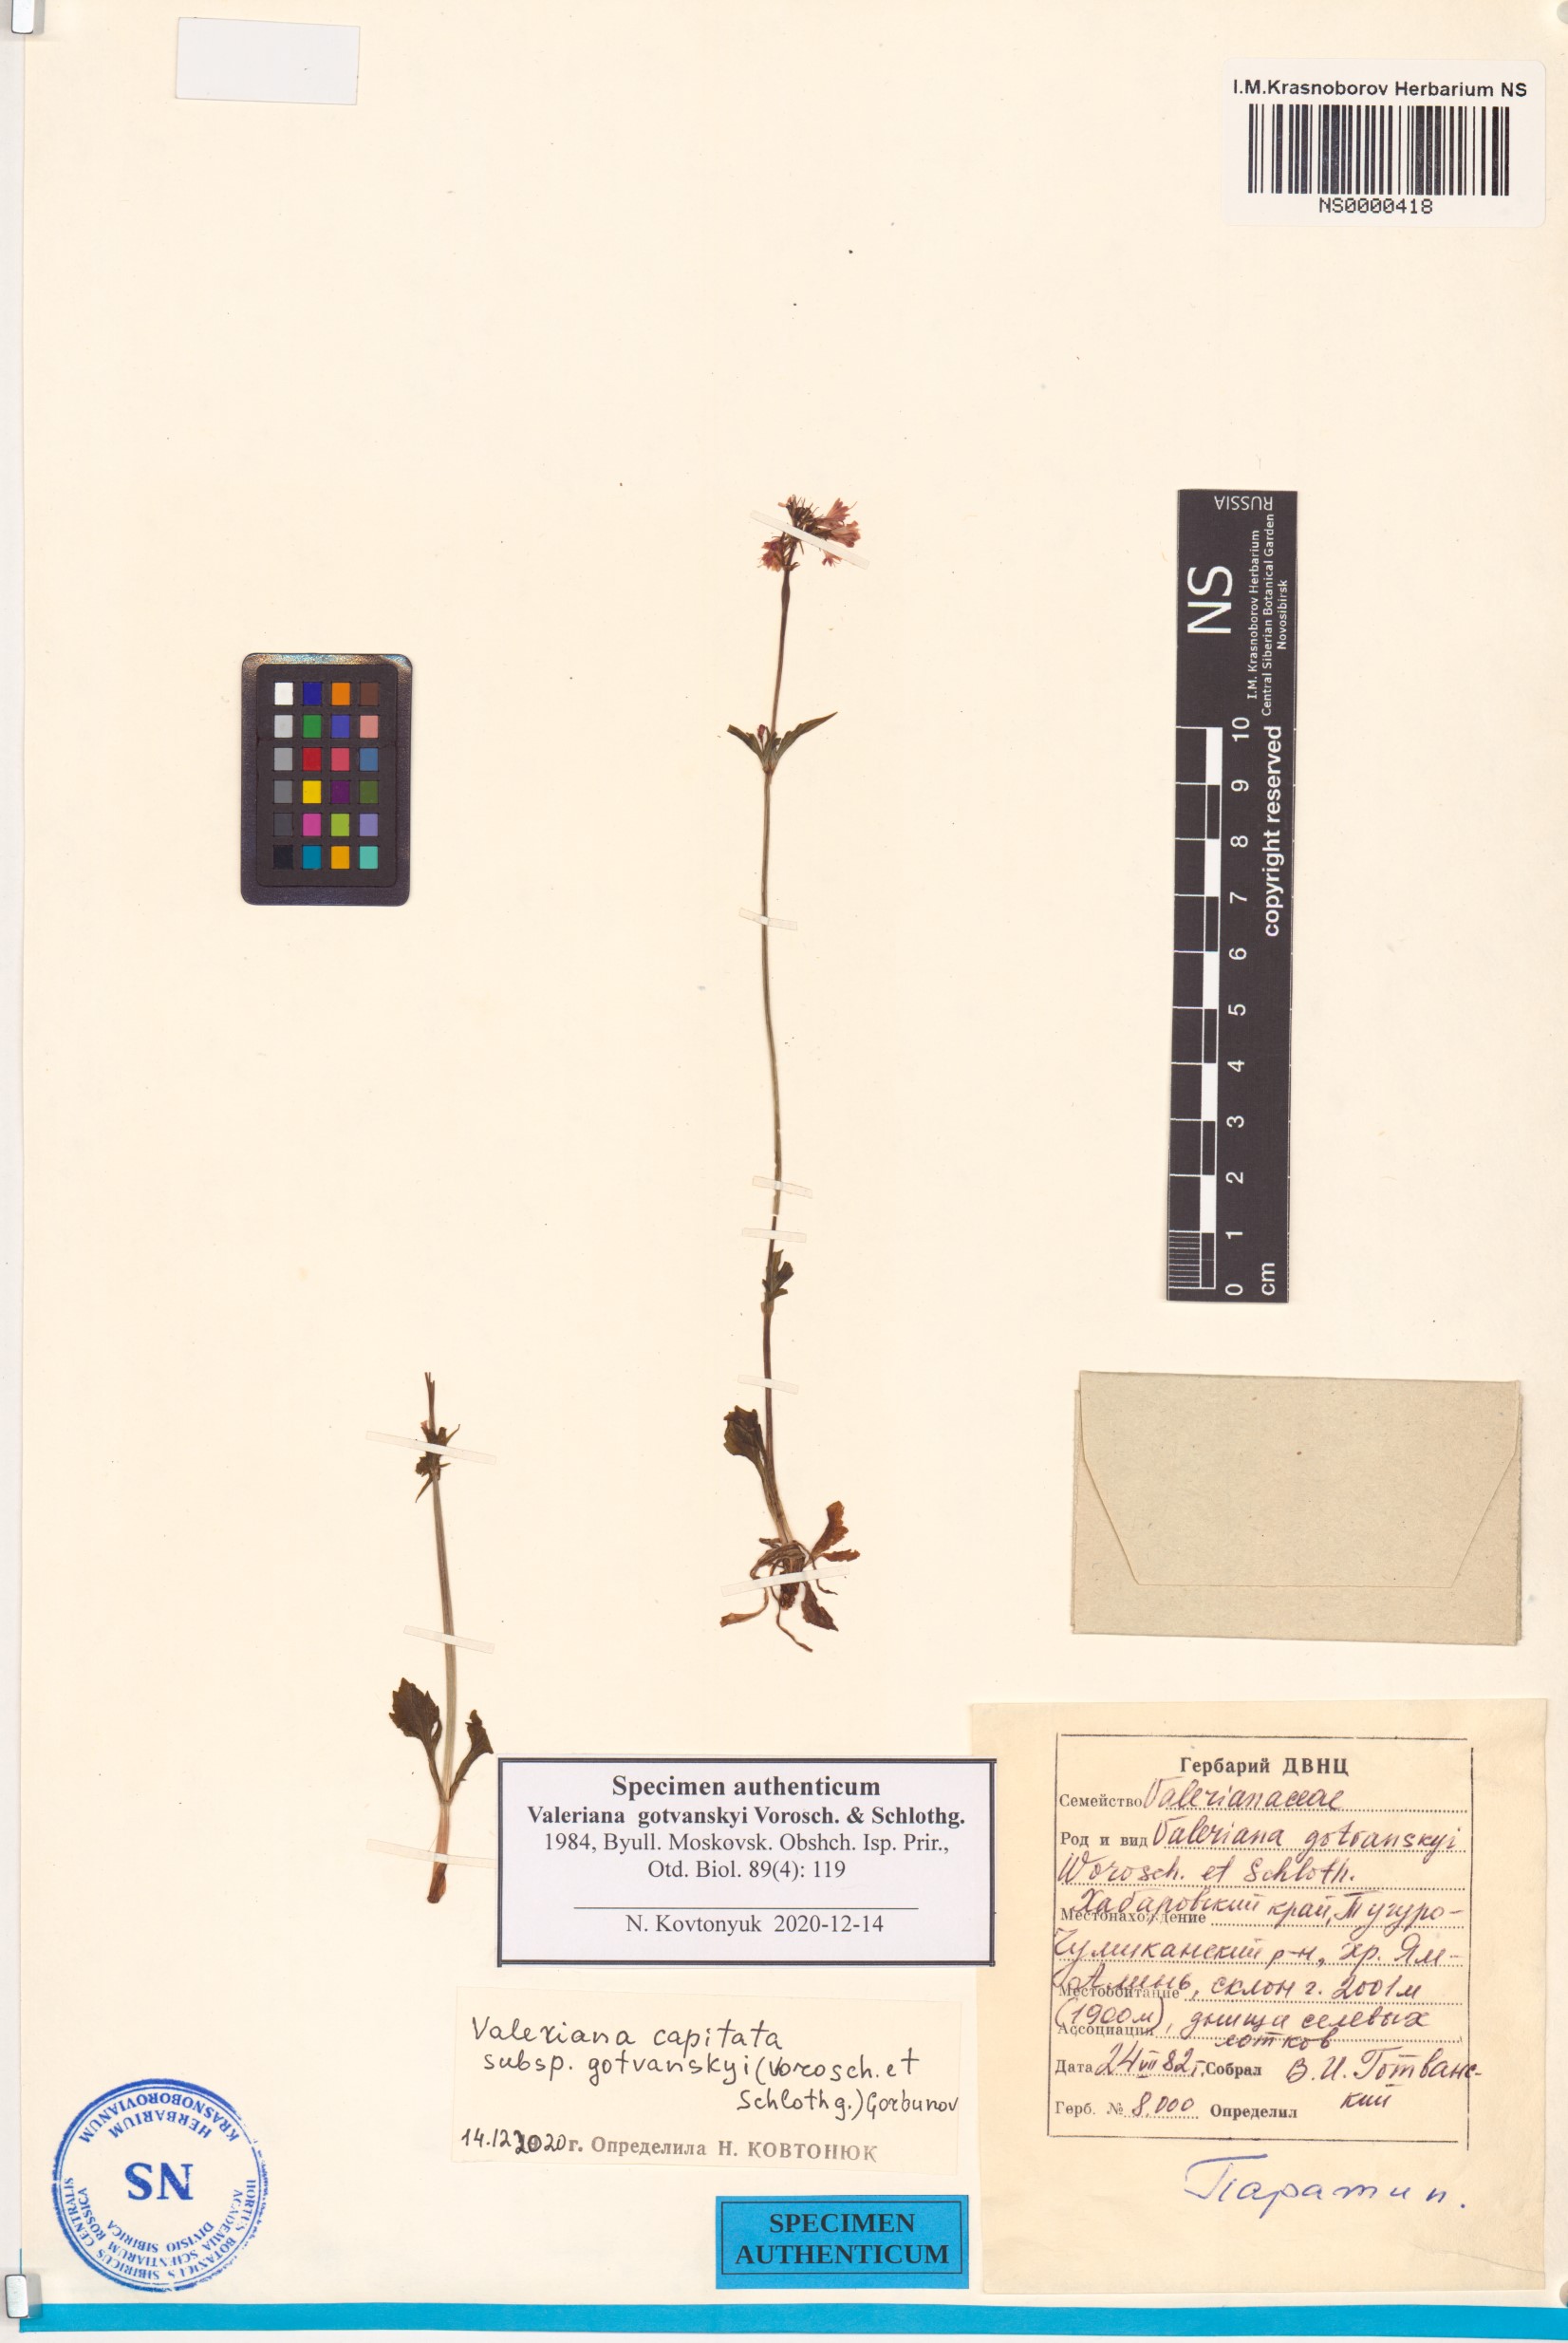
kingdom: Plantae
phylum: Tracheophyta
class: Magnoliopsida
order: Dipsacales
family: Caprifoliaceae
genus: Valeriana
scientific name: Valeriana capitata
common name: Capitate valerian
